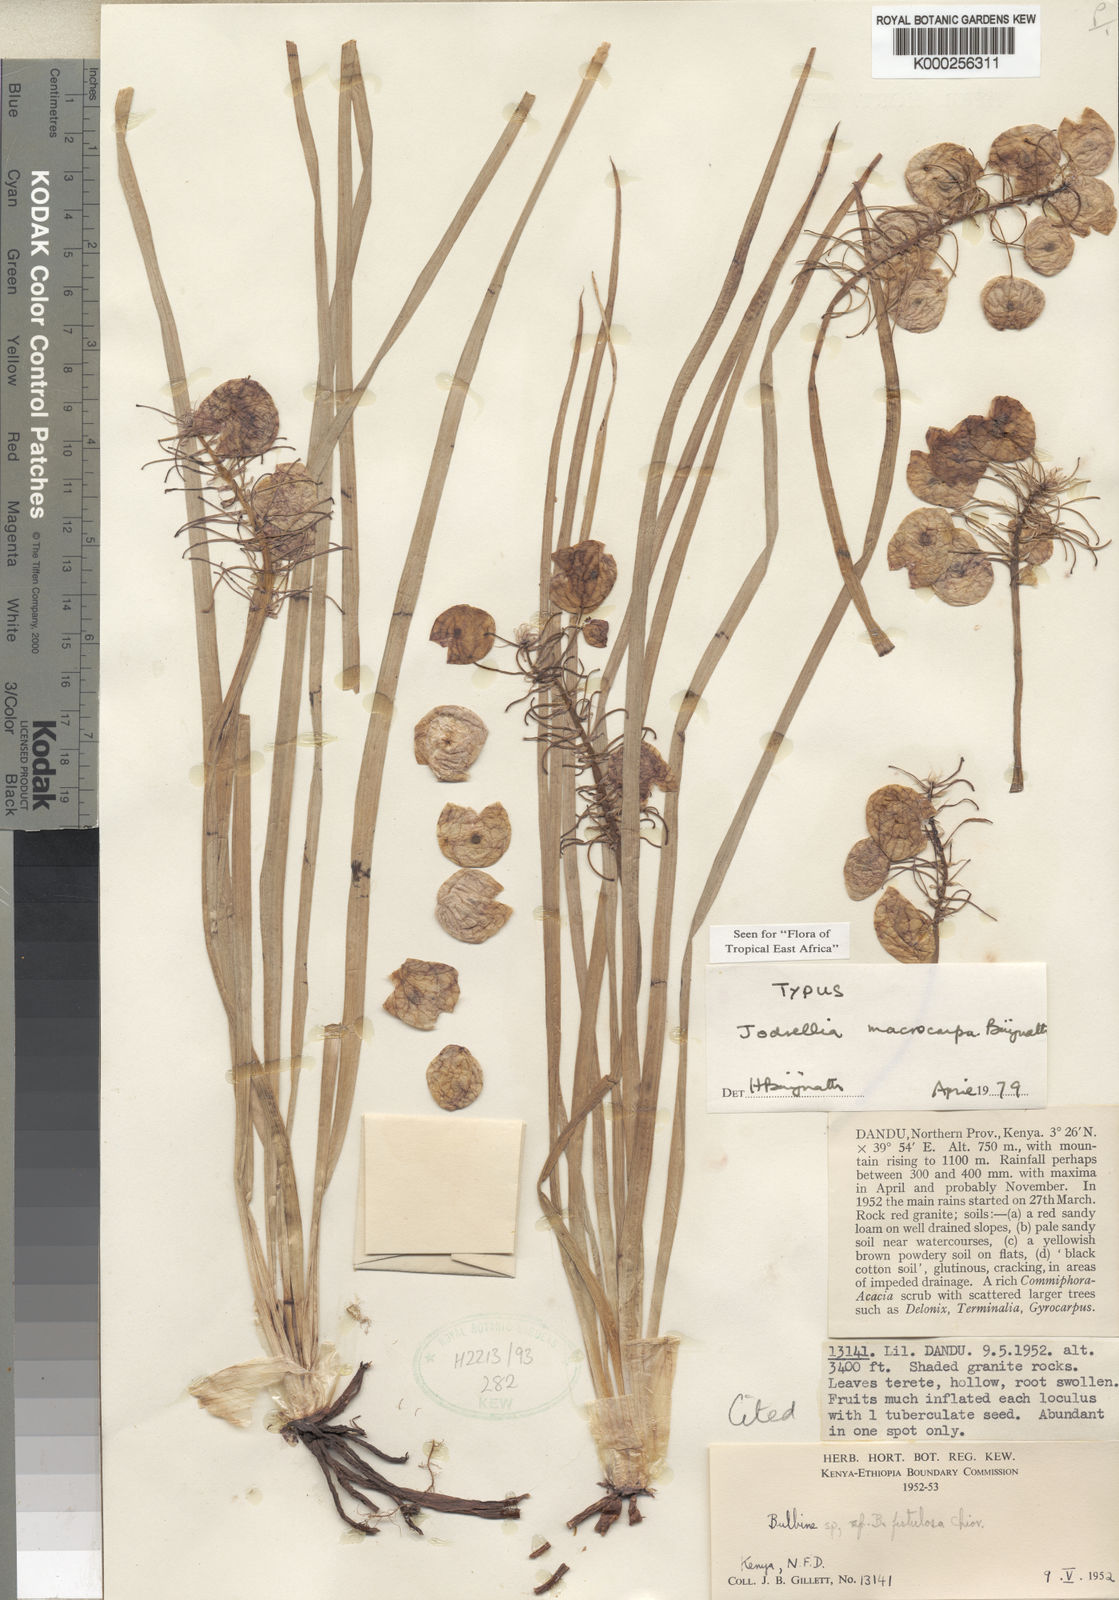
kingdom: Plantae
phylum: Tracheophyta
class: Liliopsida
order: Asparagales
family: Asphodelaceae
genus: Bulbine
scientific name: Bulbine migiurtina
